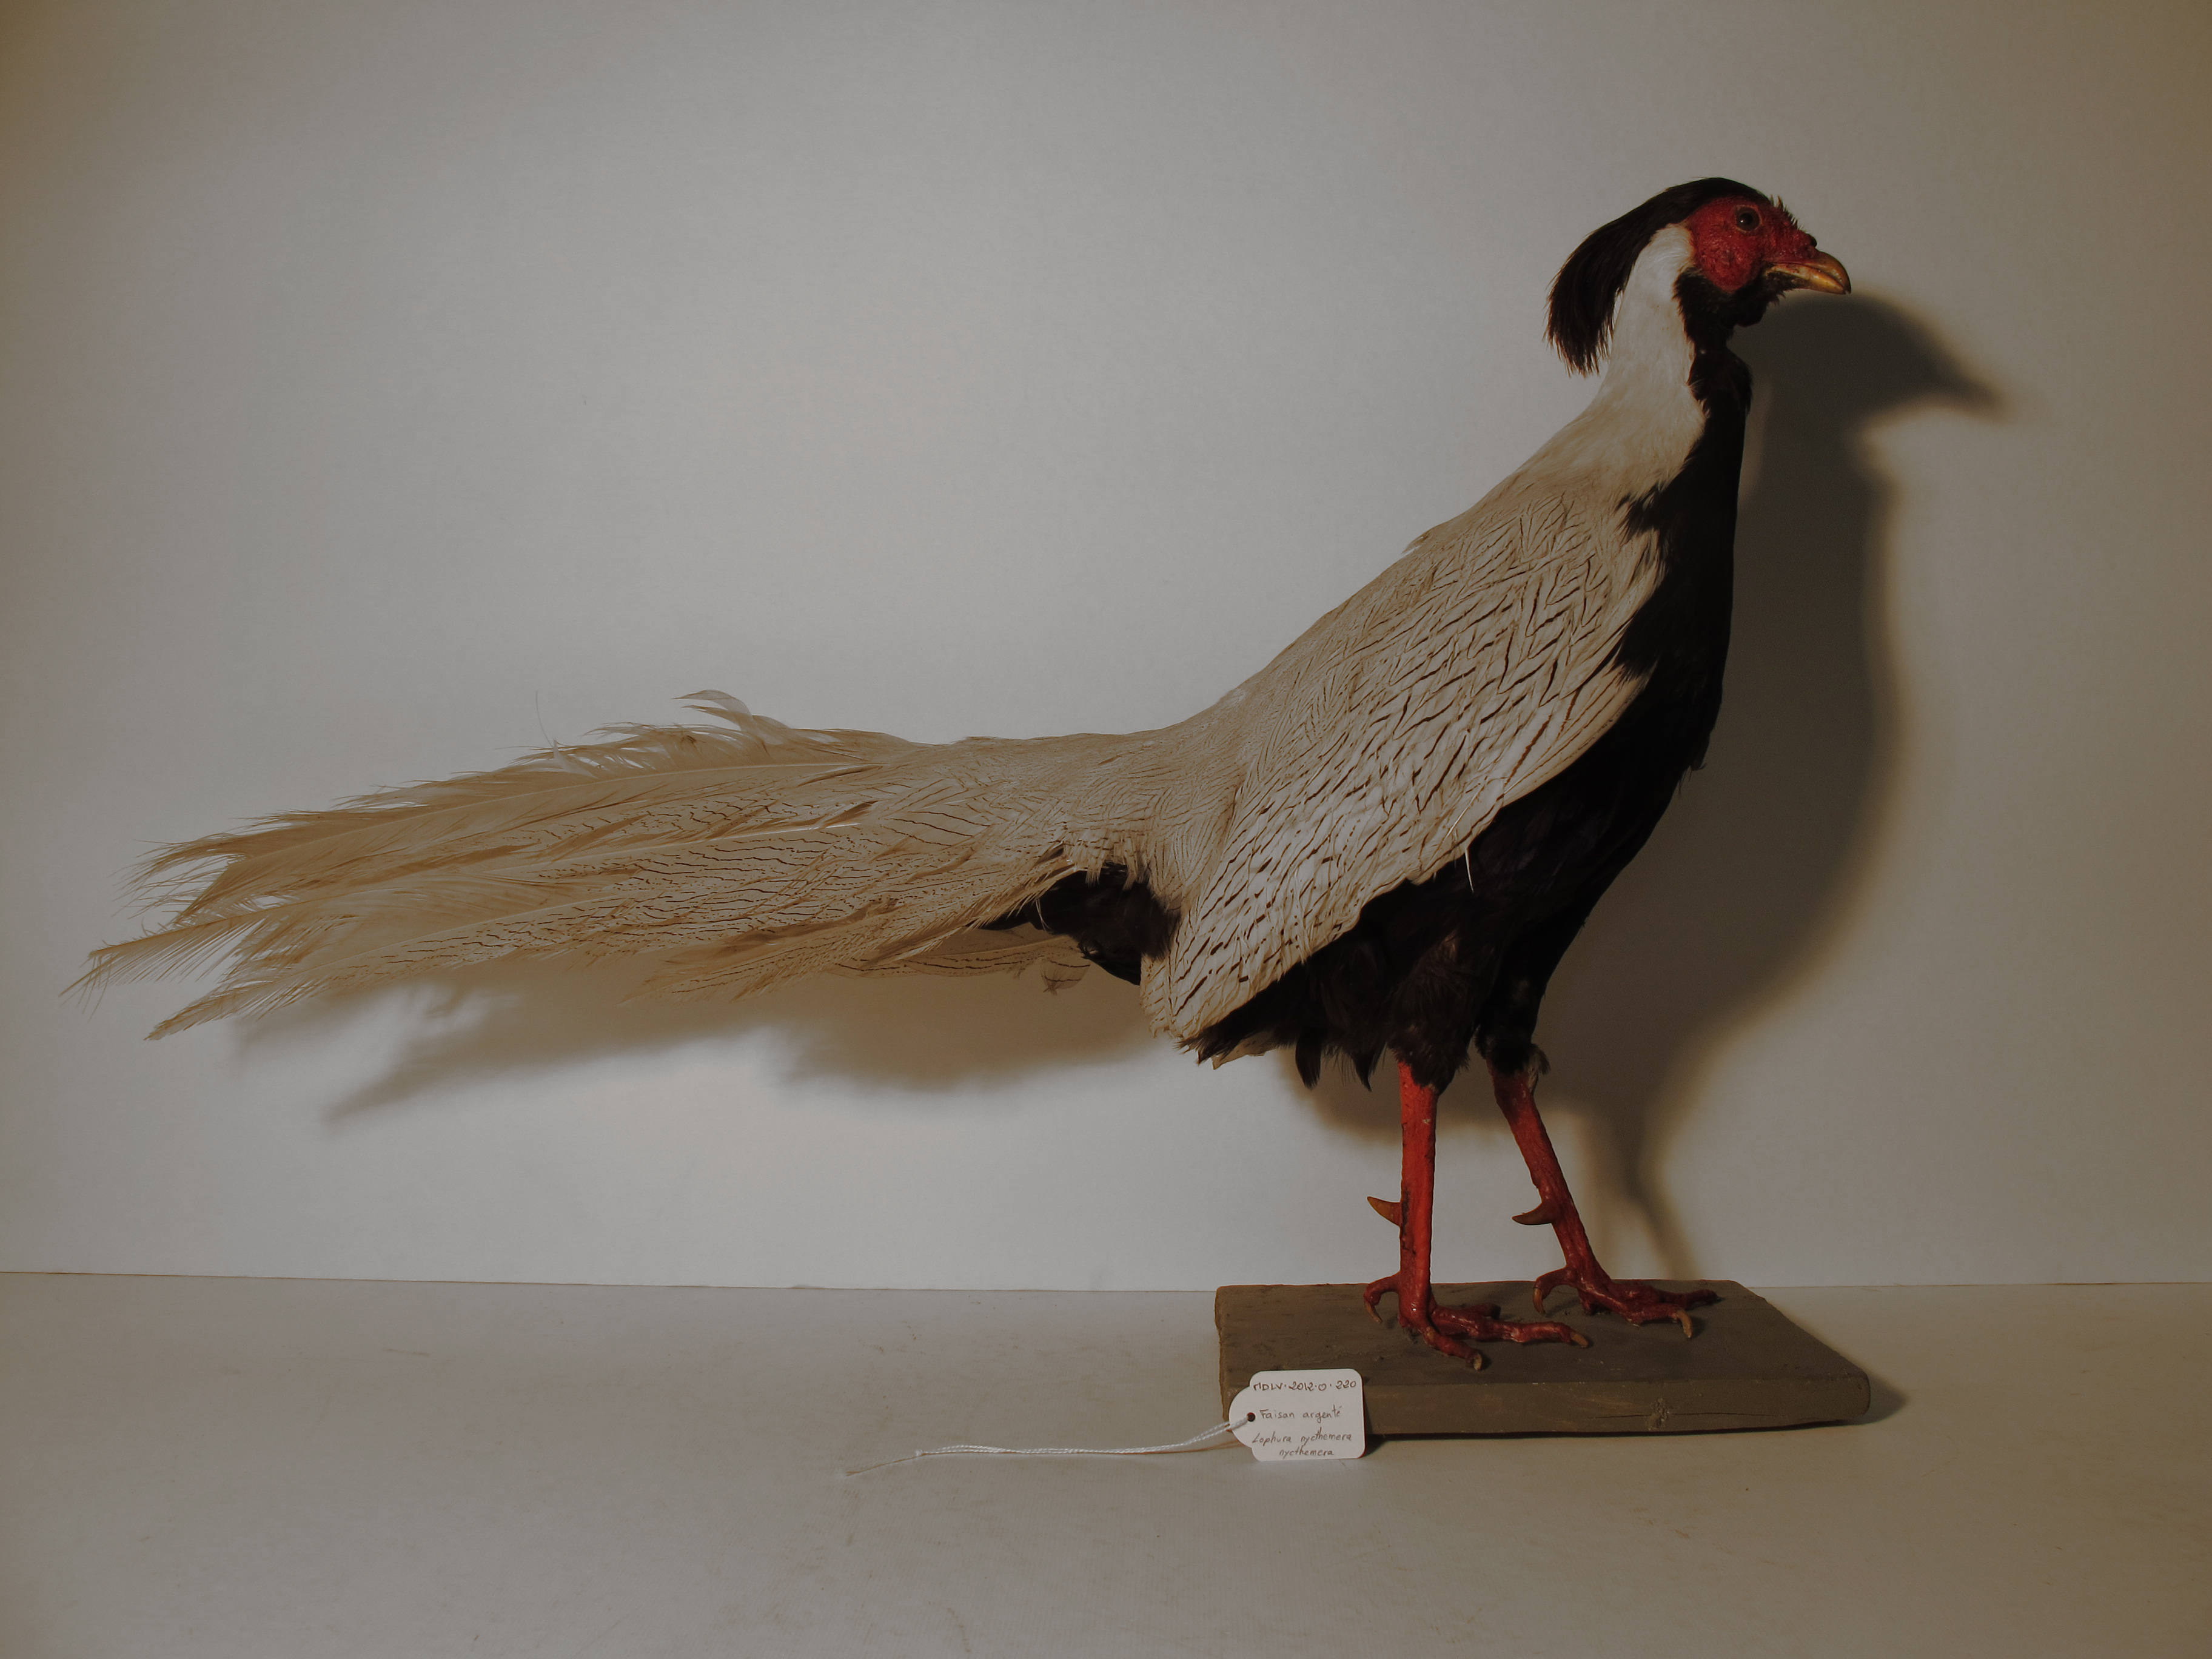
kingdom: Animalia
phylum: Chordata
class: Aves
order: Galliformes
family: Phasianidae
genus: Lophura
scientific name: Lophura nycthemera
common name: Silver Pheasant
